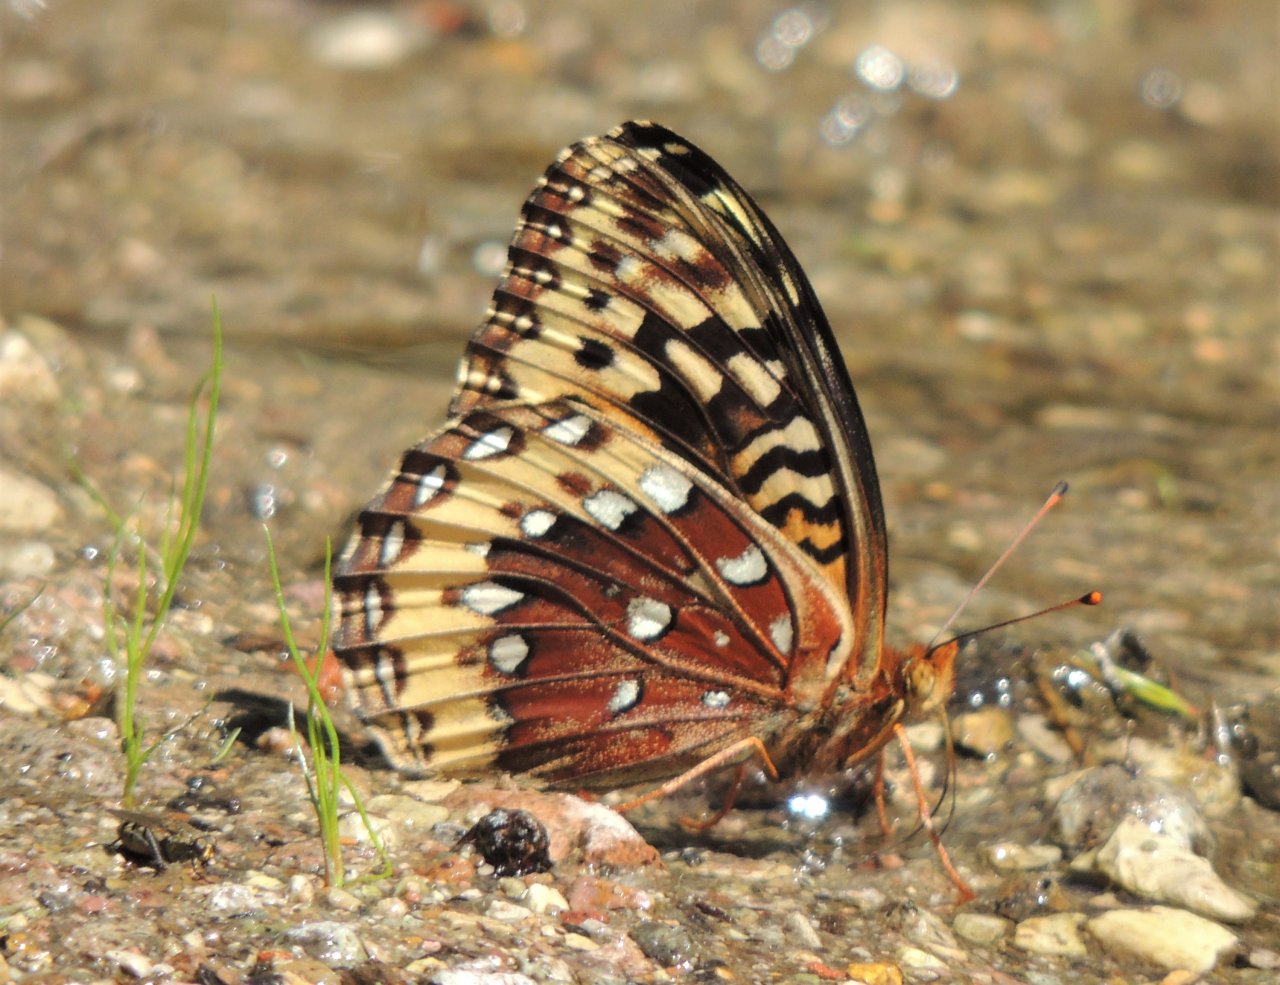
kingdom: Animalia
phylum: Arthropoda
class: Insecta
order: Lepidoptera
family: Nymphalidae
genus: Speyeria
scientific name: Speyeria cybele
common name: Great Spangled Fritillary
